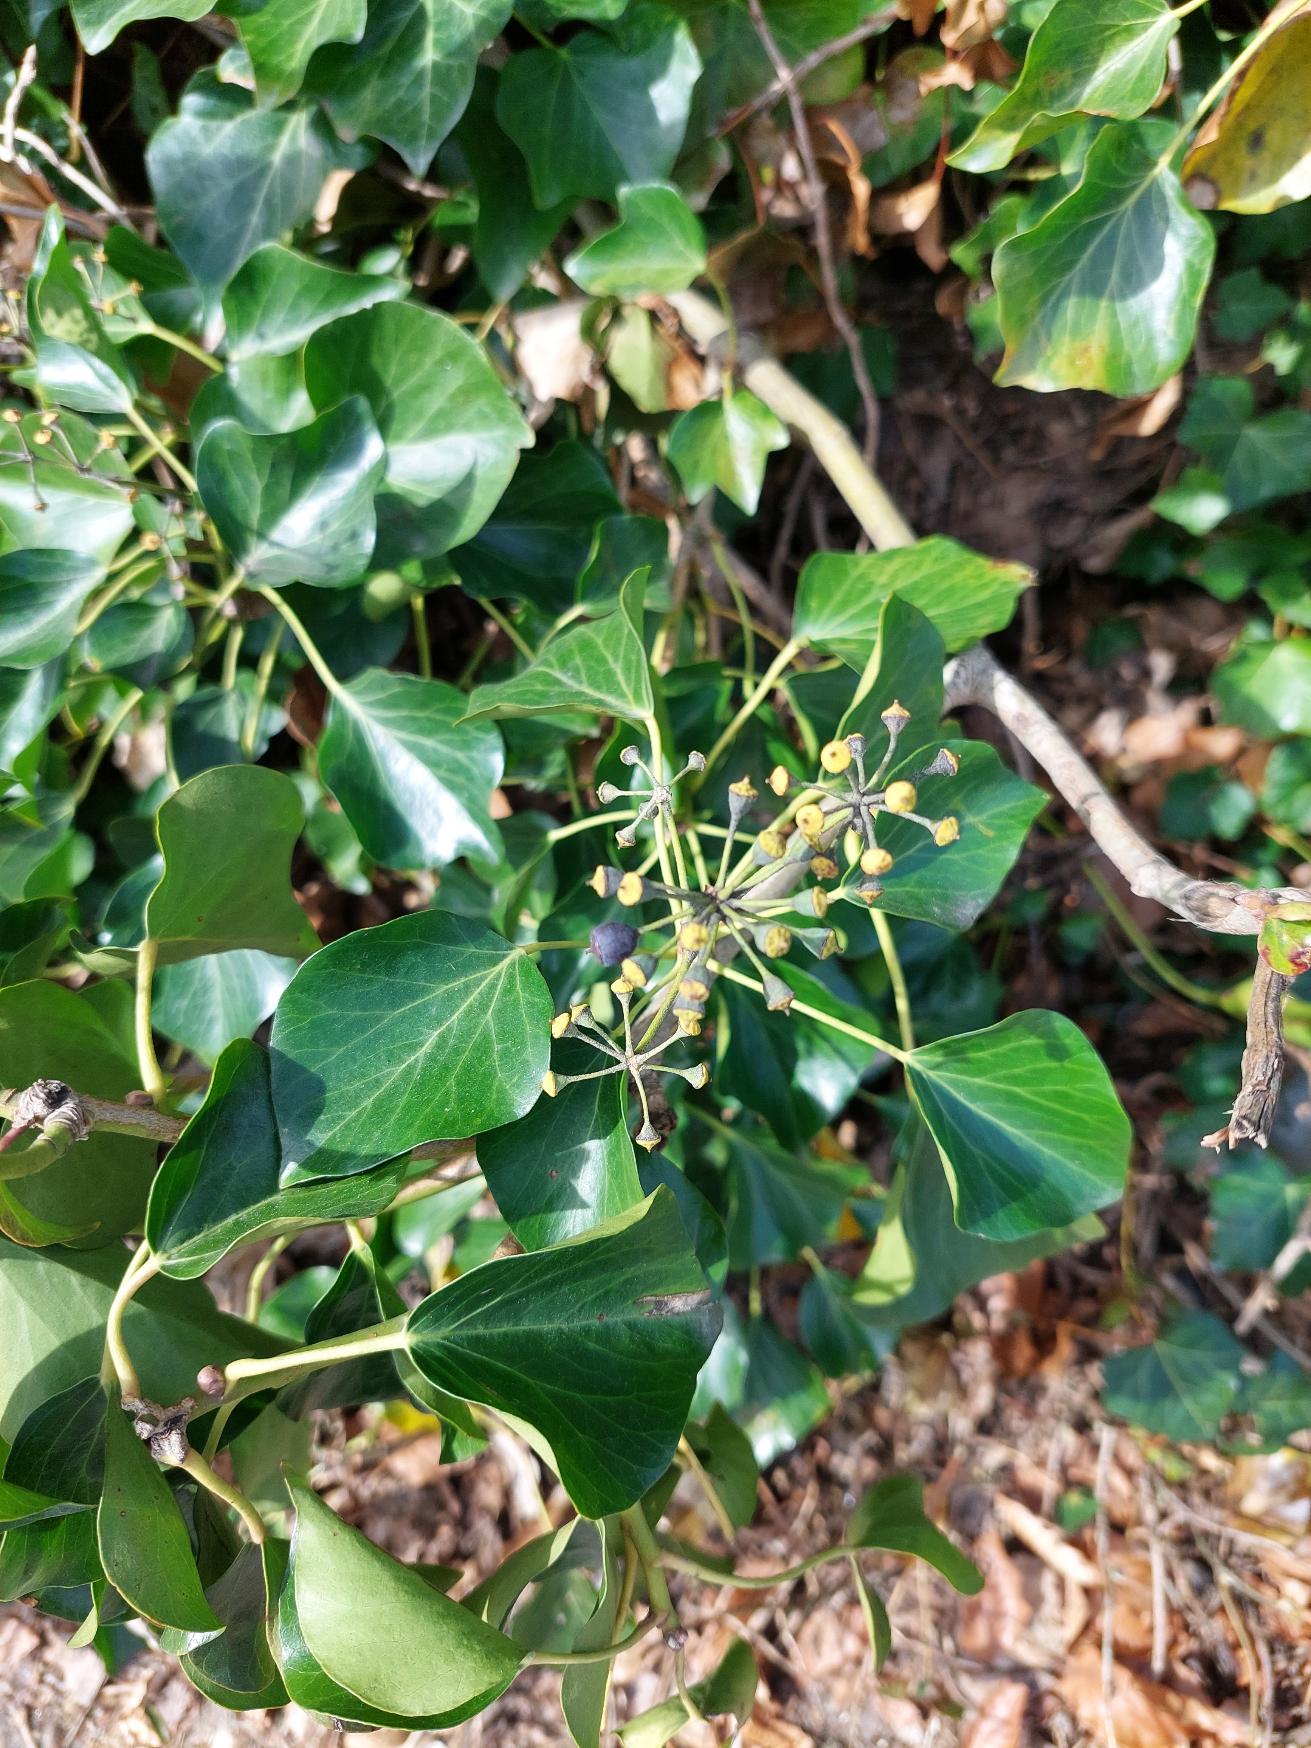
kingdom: Plantae
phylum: Tracheophyta
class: Magnoliopsida
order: Apiales
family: Araliaceae
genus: Hedera
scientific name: Hedera helix
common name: Vedbend
